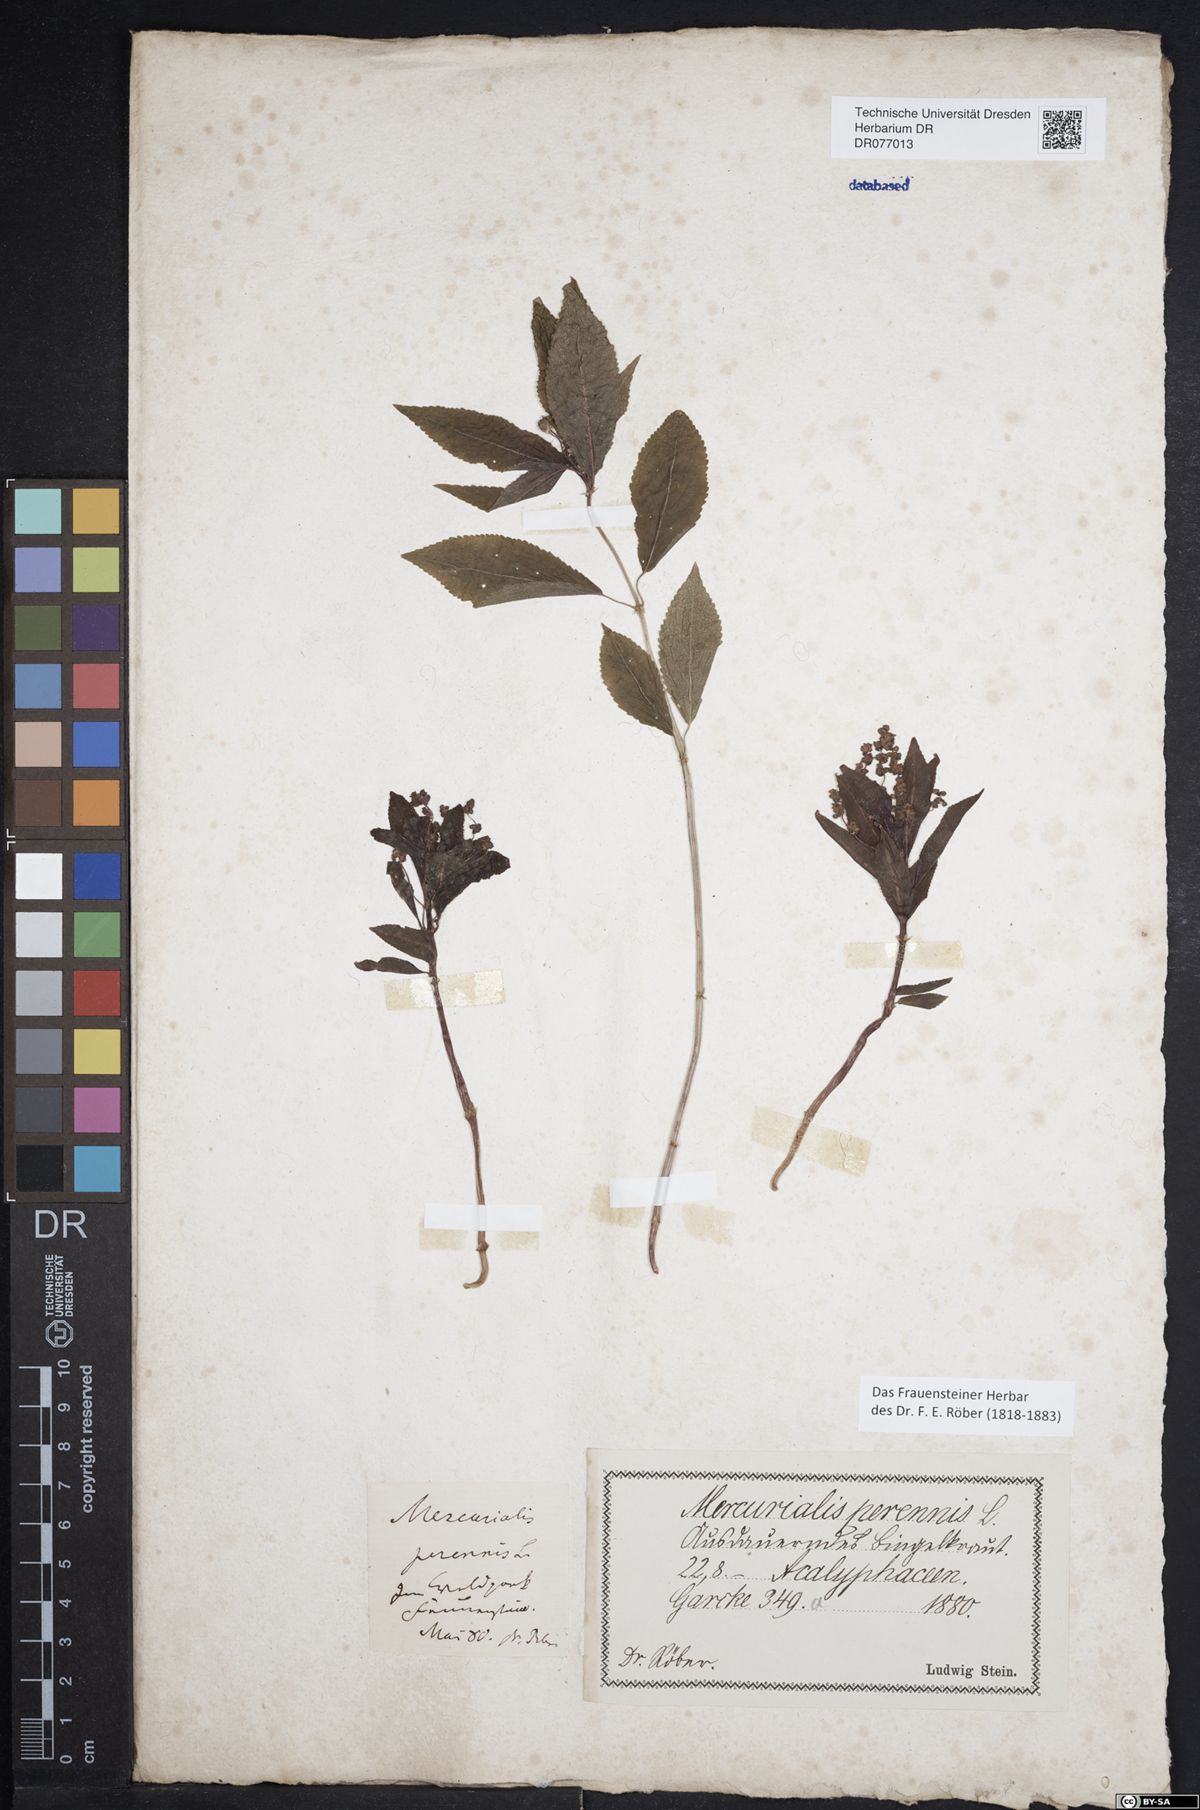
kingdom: Plantae
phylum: Tracheophyta
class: Magnoliopsida
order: Malpighiales
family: Euphorbiaceae
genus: Mercurialis
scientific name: Mercurialis perennis
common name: Dog mercury
